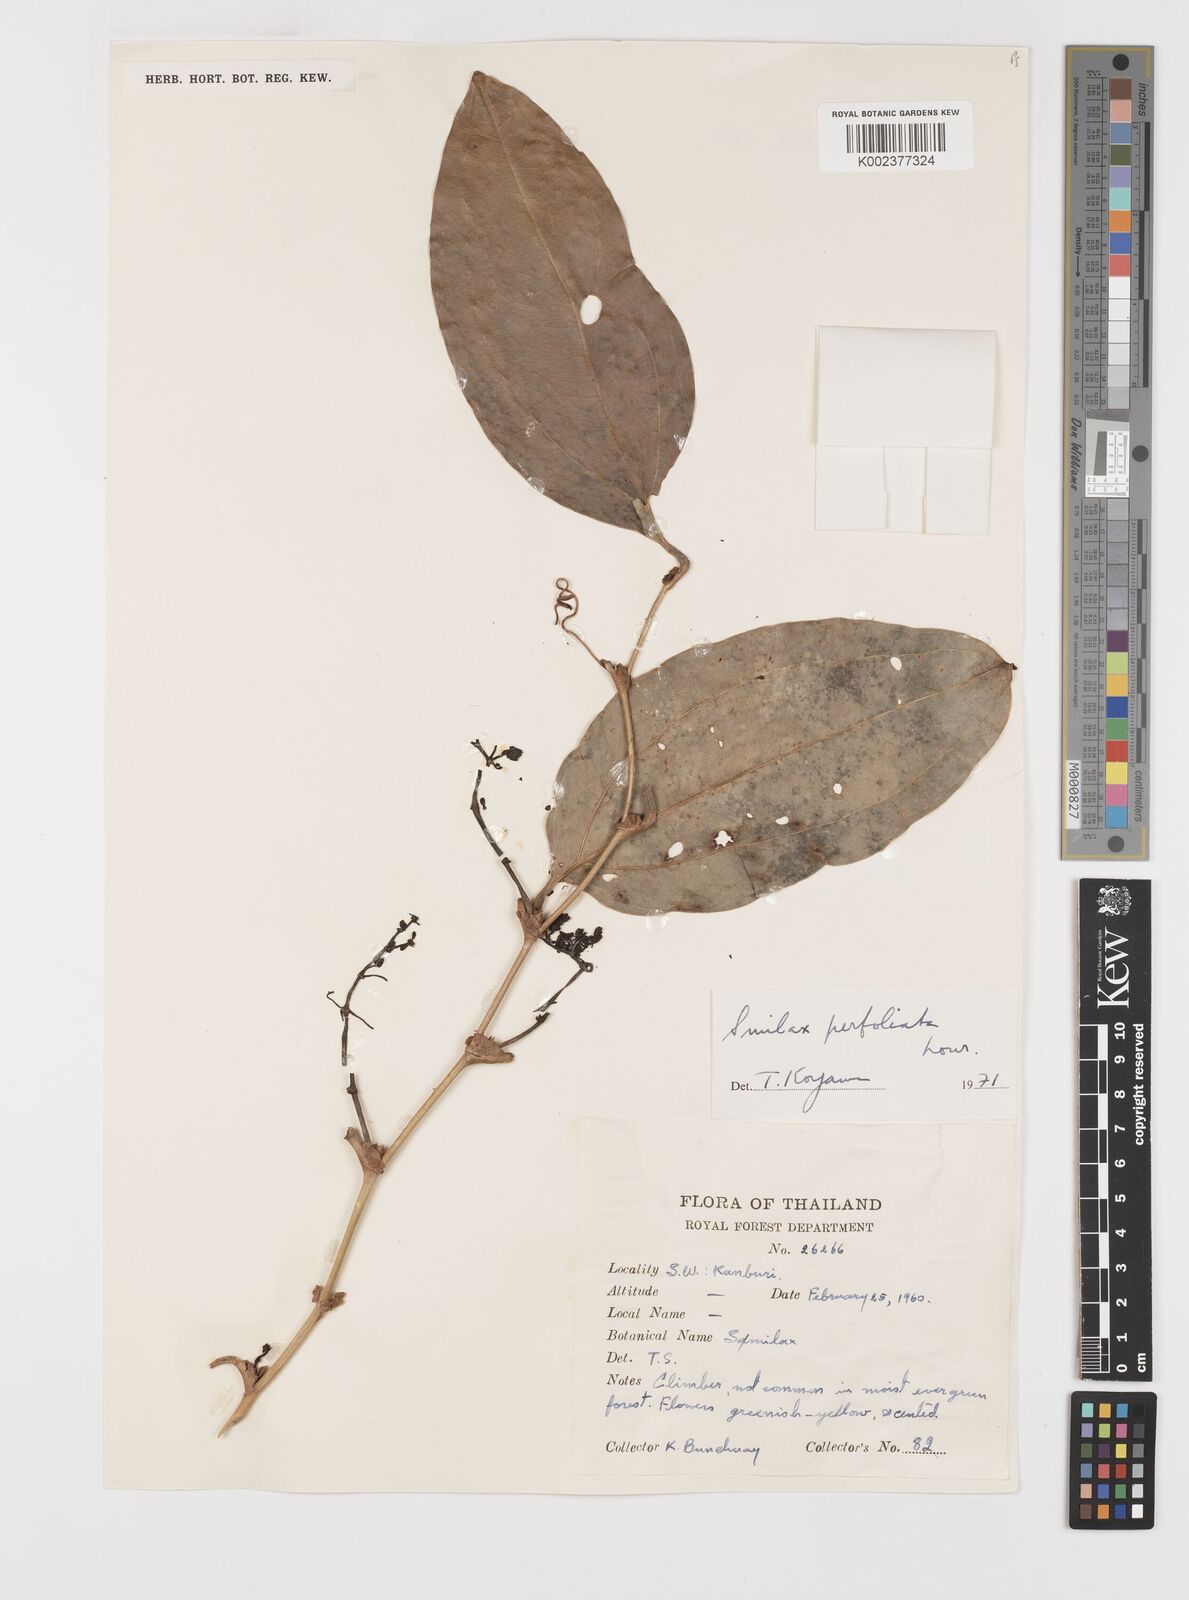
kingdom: Plantae
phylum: Tracheophyta
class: Liliopsida
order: Liliales
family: Smilacaceae
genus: Smilax
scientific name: Smilax perfoliata
